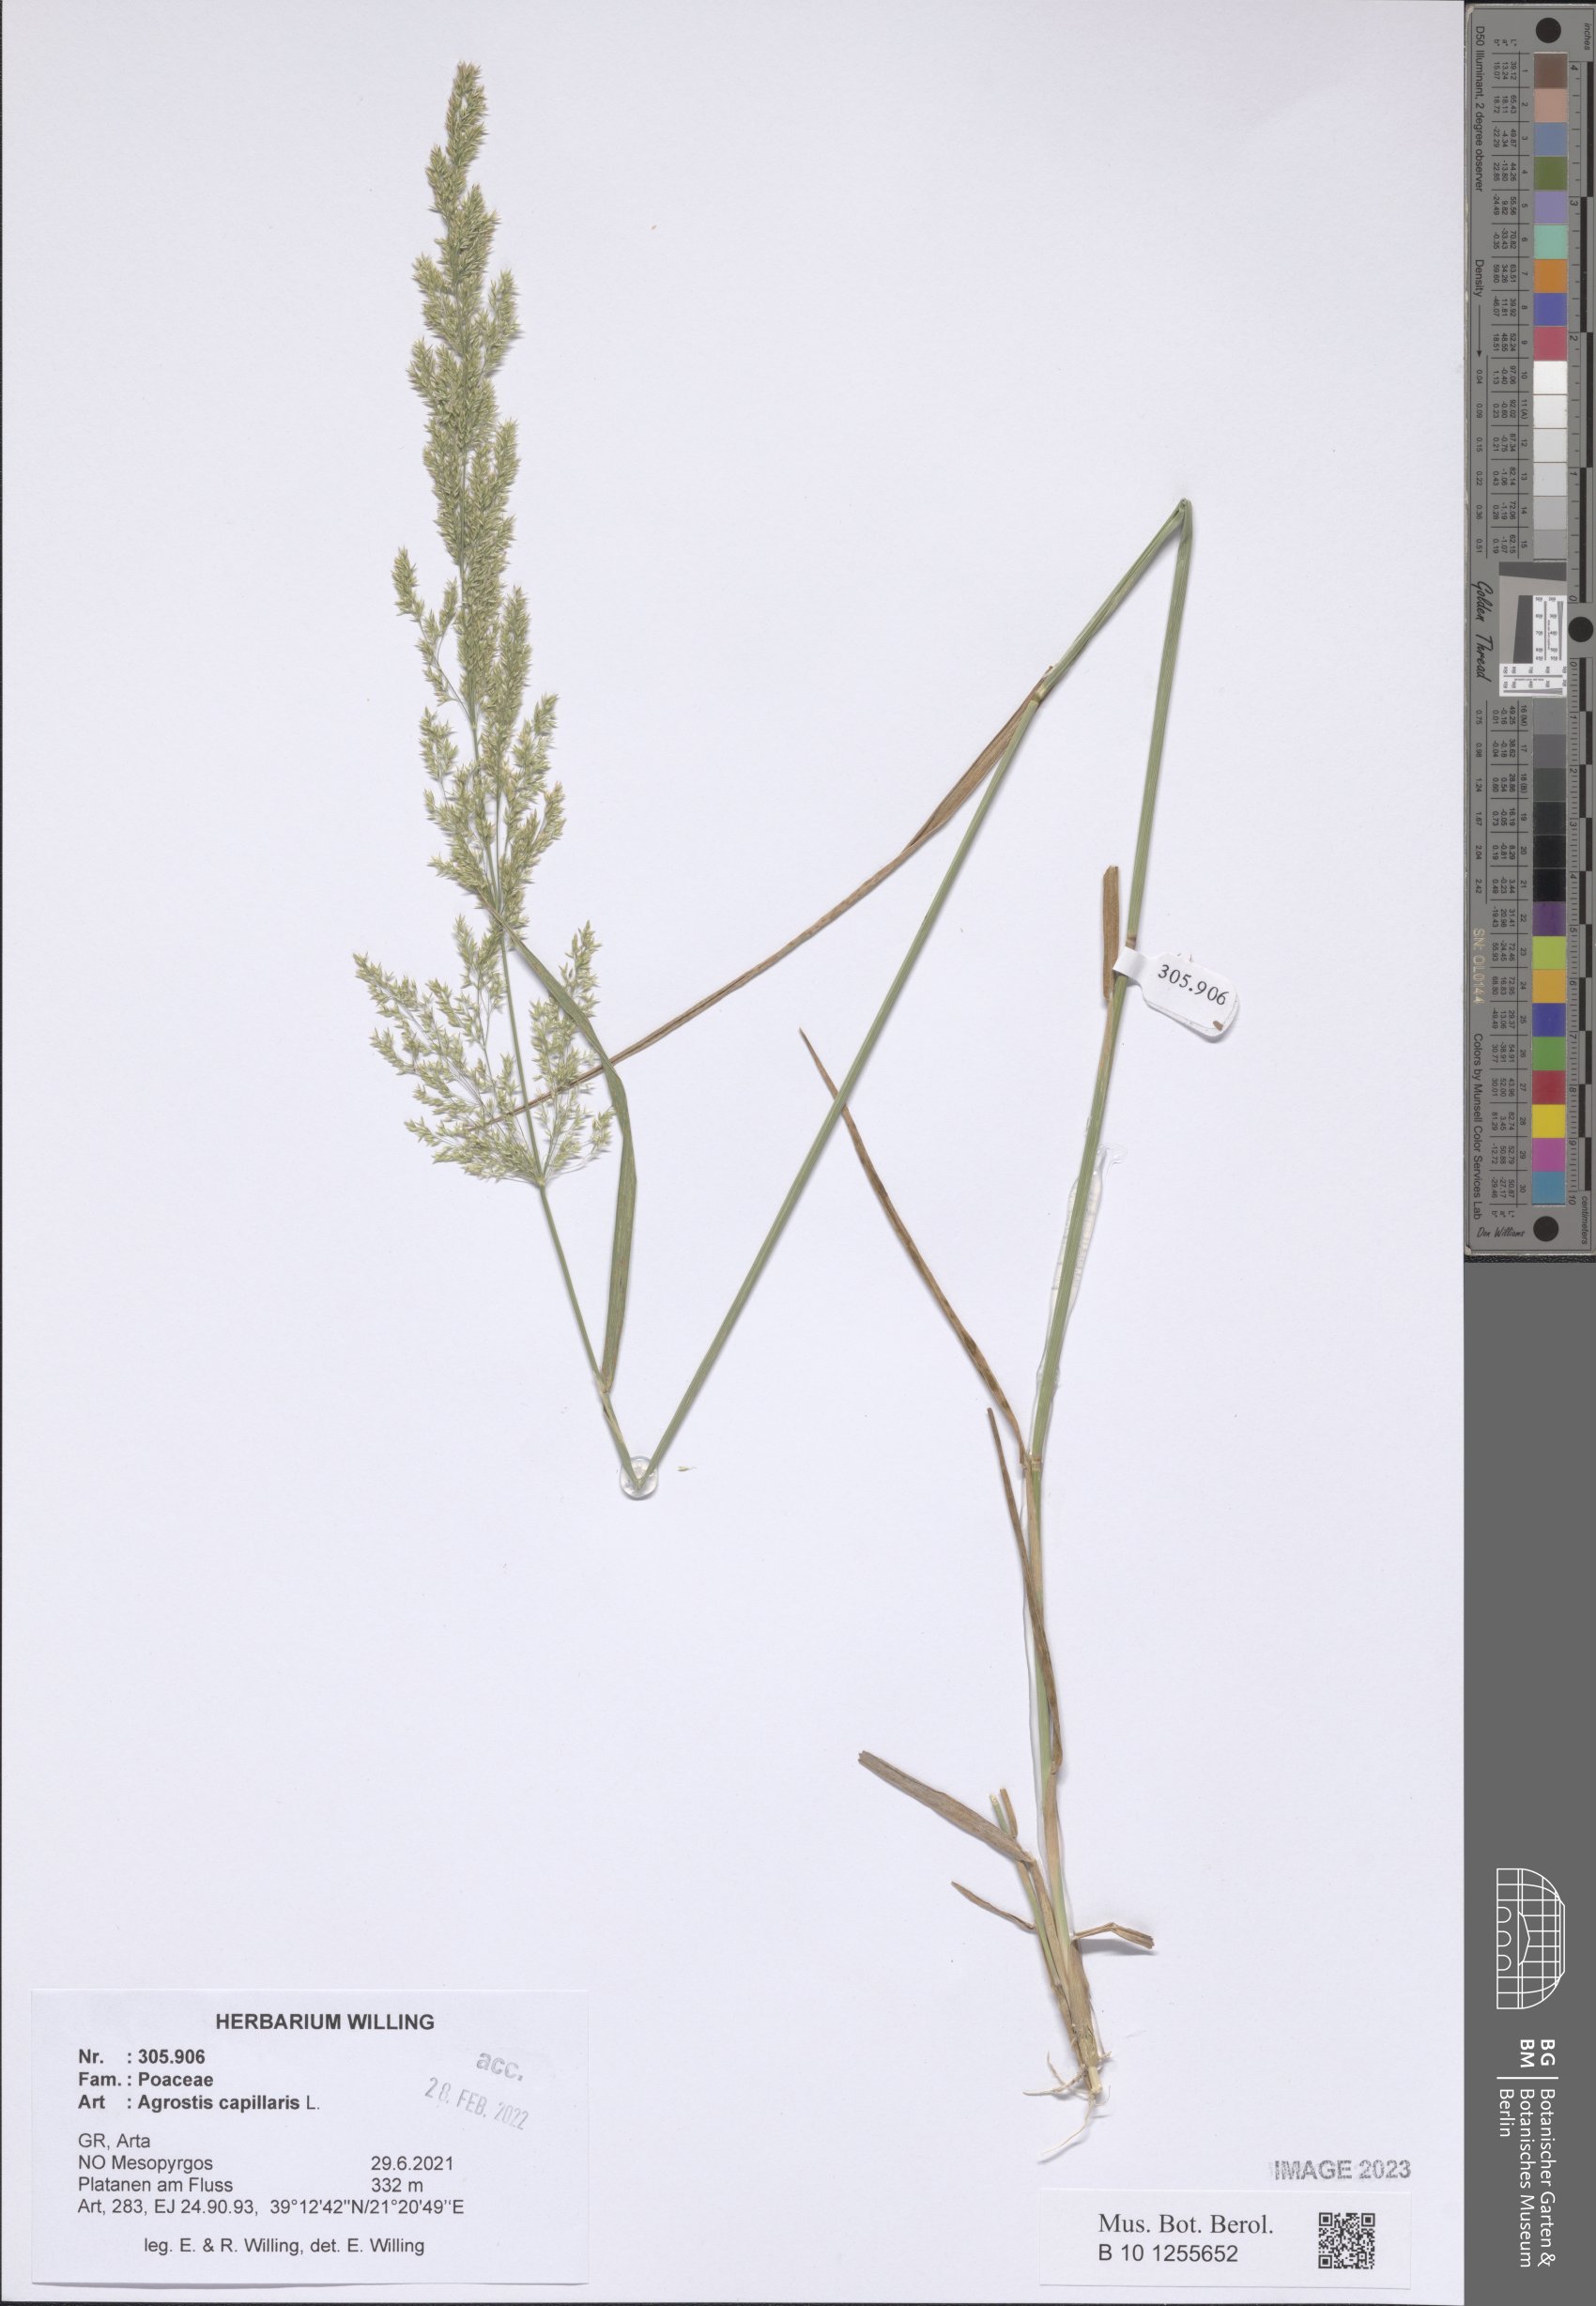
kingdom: Plantae
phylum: Tracheophyta
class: Liliopsida
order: Poales
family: Poaceae
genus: Agrostis
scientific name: Agrostis capillaris
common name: Colonial bentgrass
